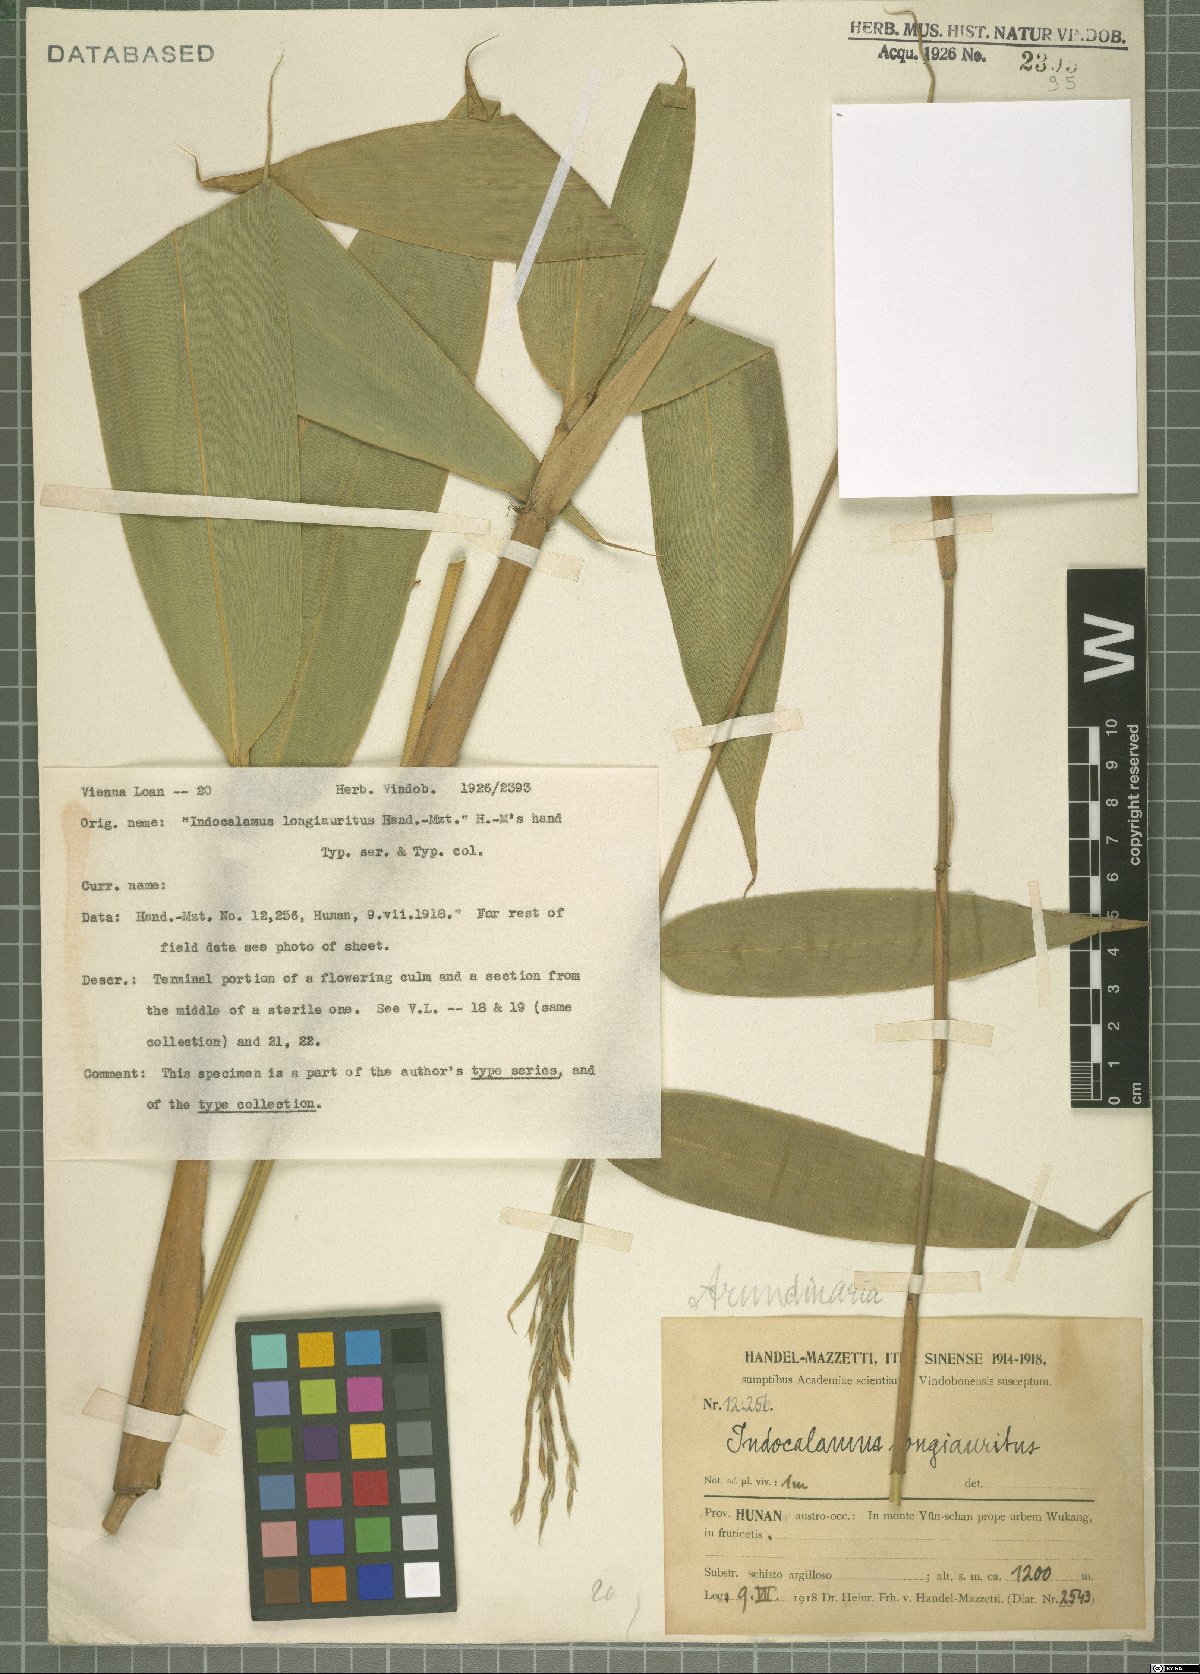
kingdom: Plantae
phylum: Tracheophyta
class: Liliopsida
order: Poales
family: Poaceae
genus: Indocalamus
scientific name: Indocalamus longiauritus
